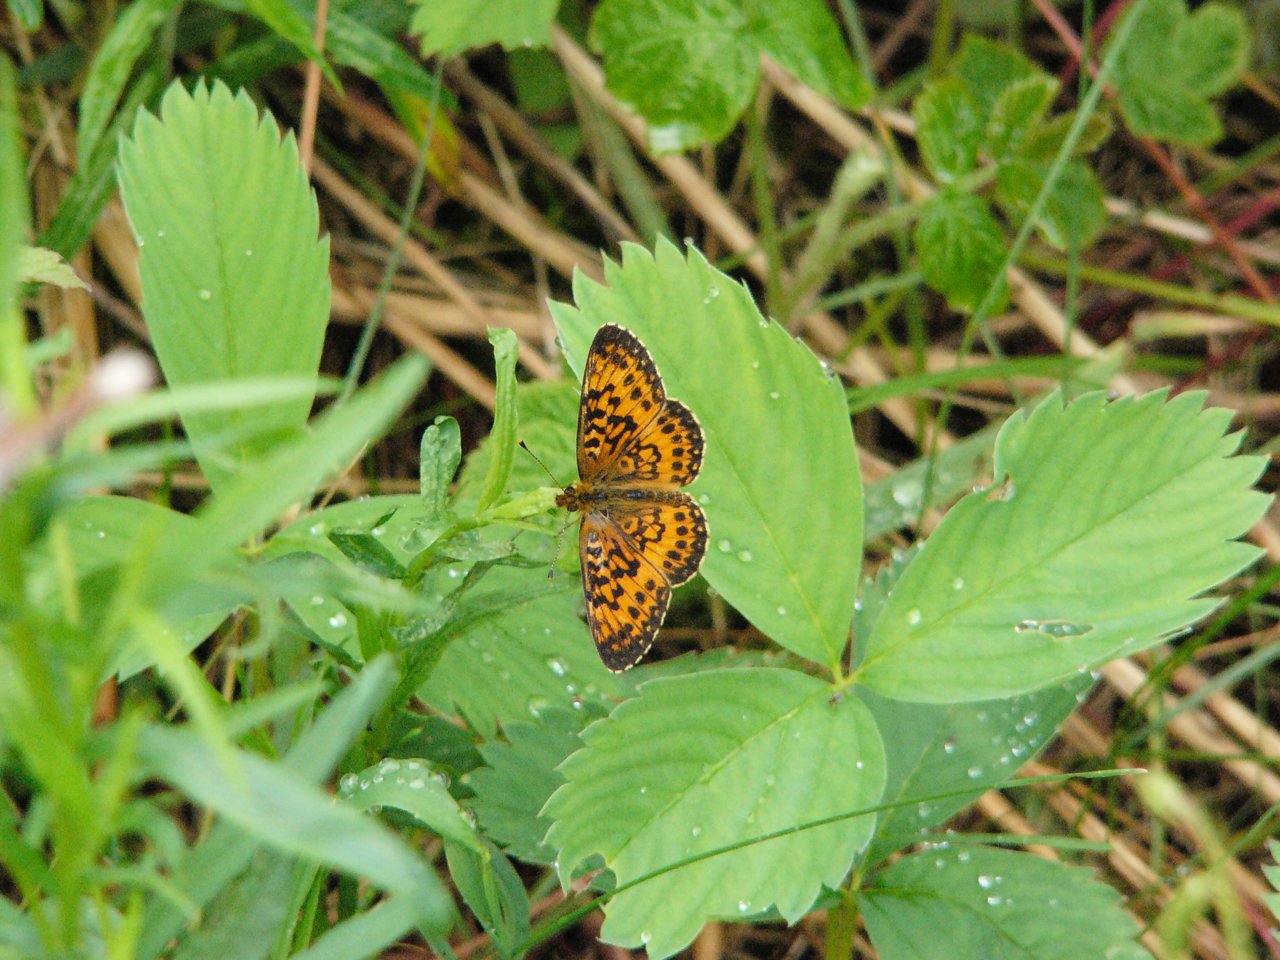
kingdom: Animalia
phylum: Arthropoda
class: Insecta
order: Lepidoptera
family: Nymphalidae
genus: Boloria
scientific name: Boloria selene
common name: Silver-bordered Fritillary
